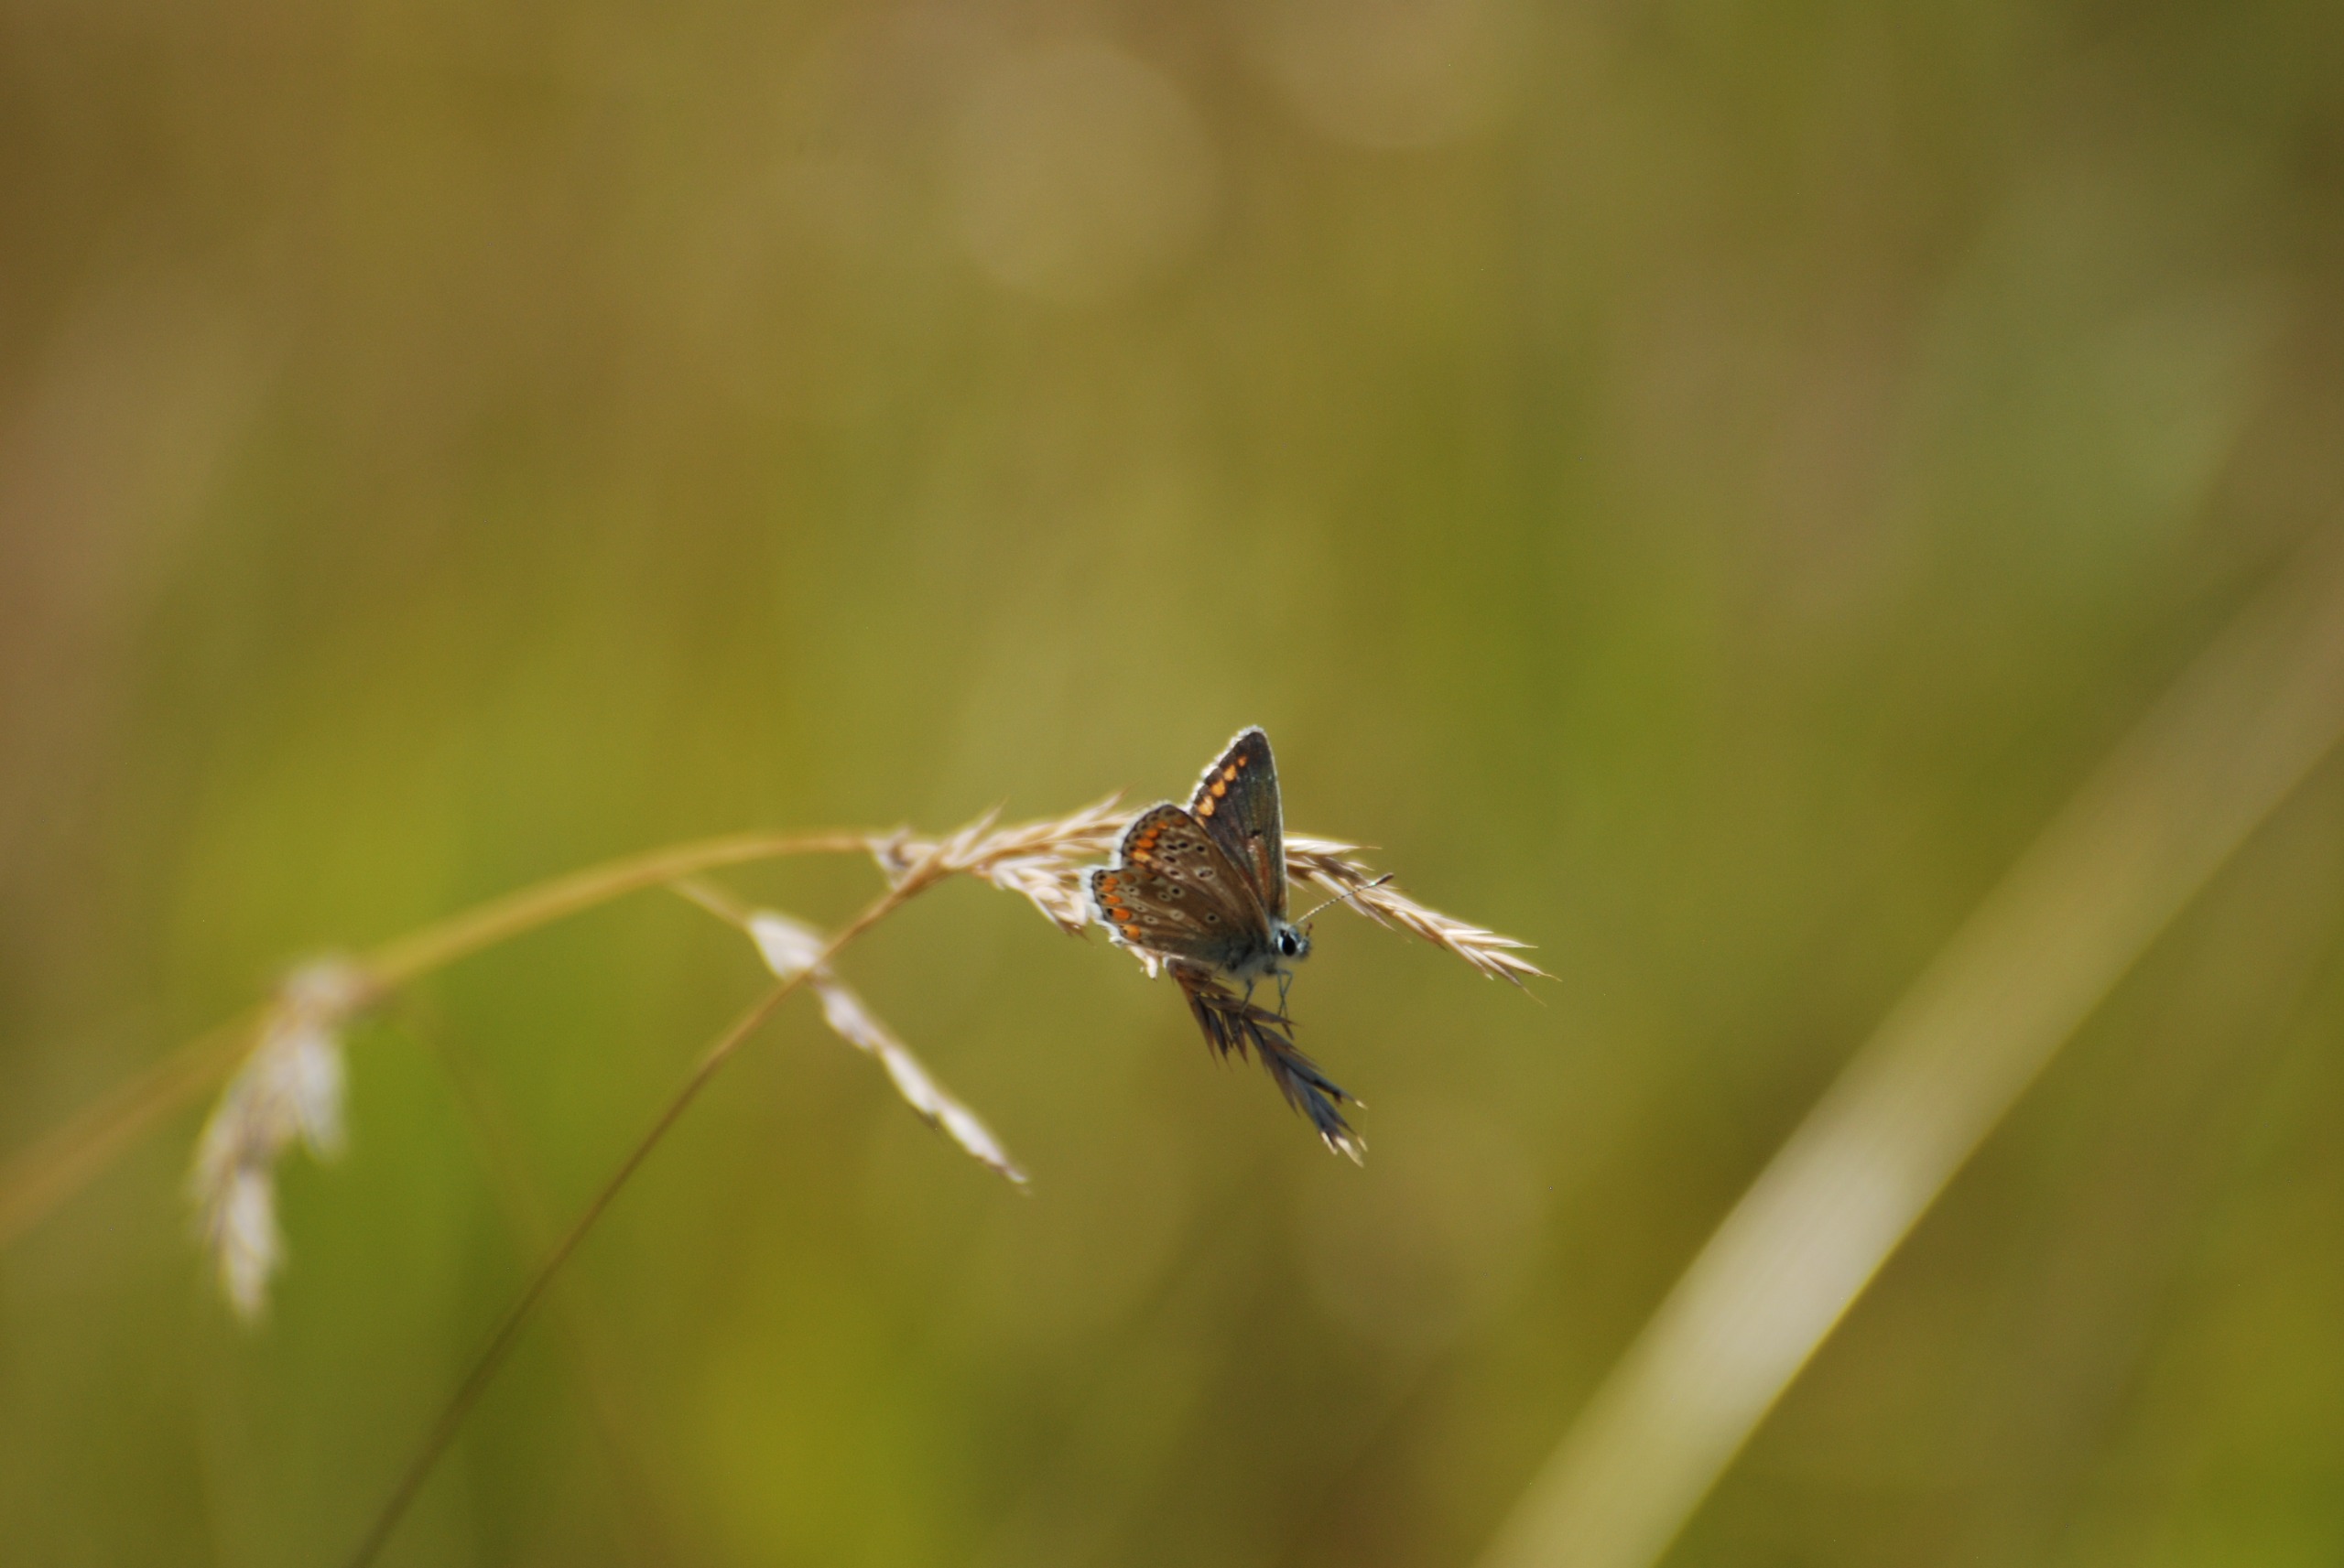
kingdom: Animalia
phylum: Arthropoda
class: Insecta
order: Lepidoptera
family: Lycaenidae
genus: Aricia
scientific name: Aricia agestis
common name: Rødplettet blåfugl
